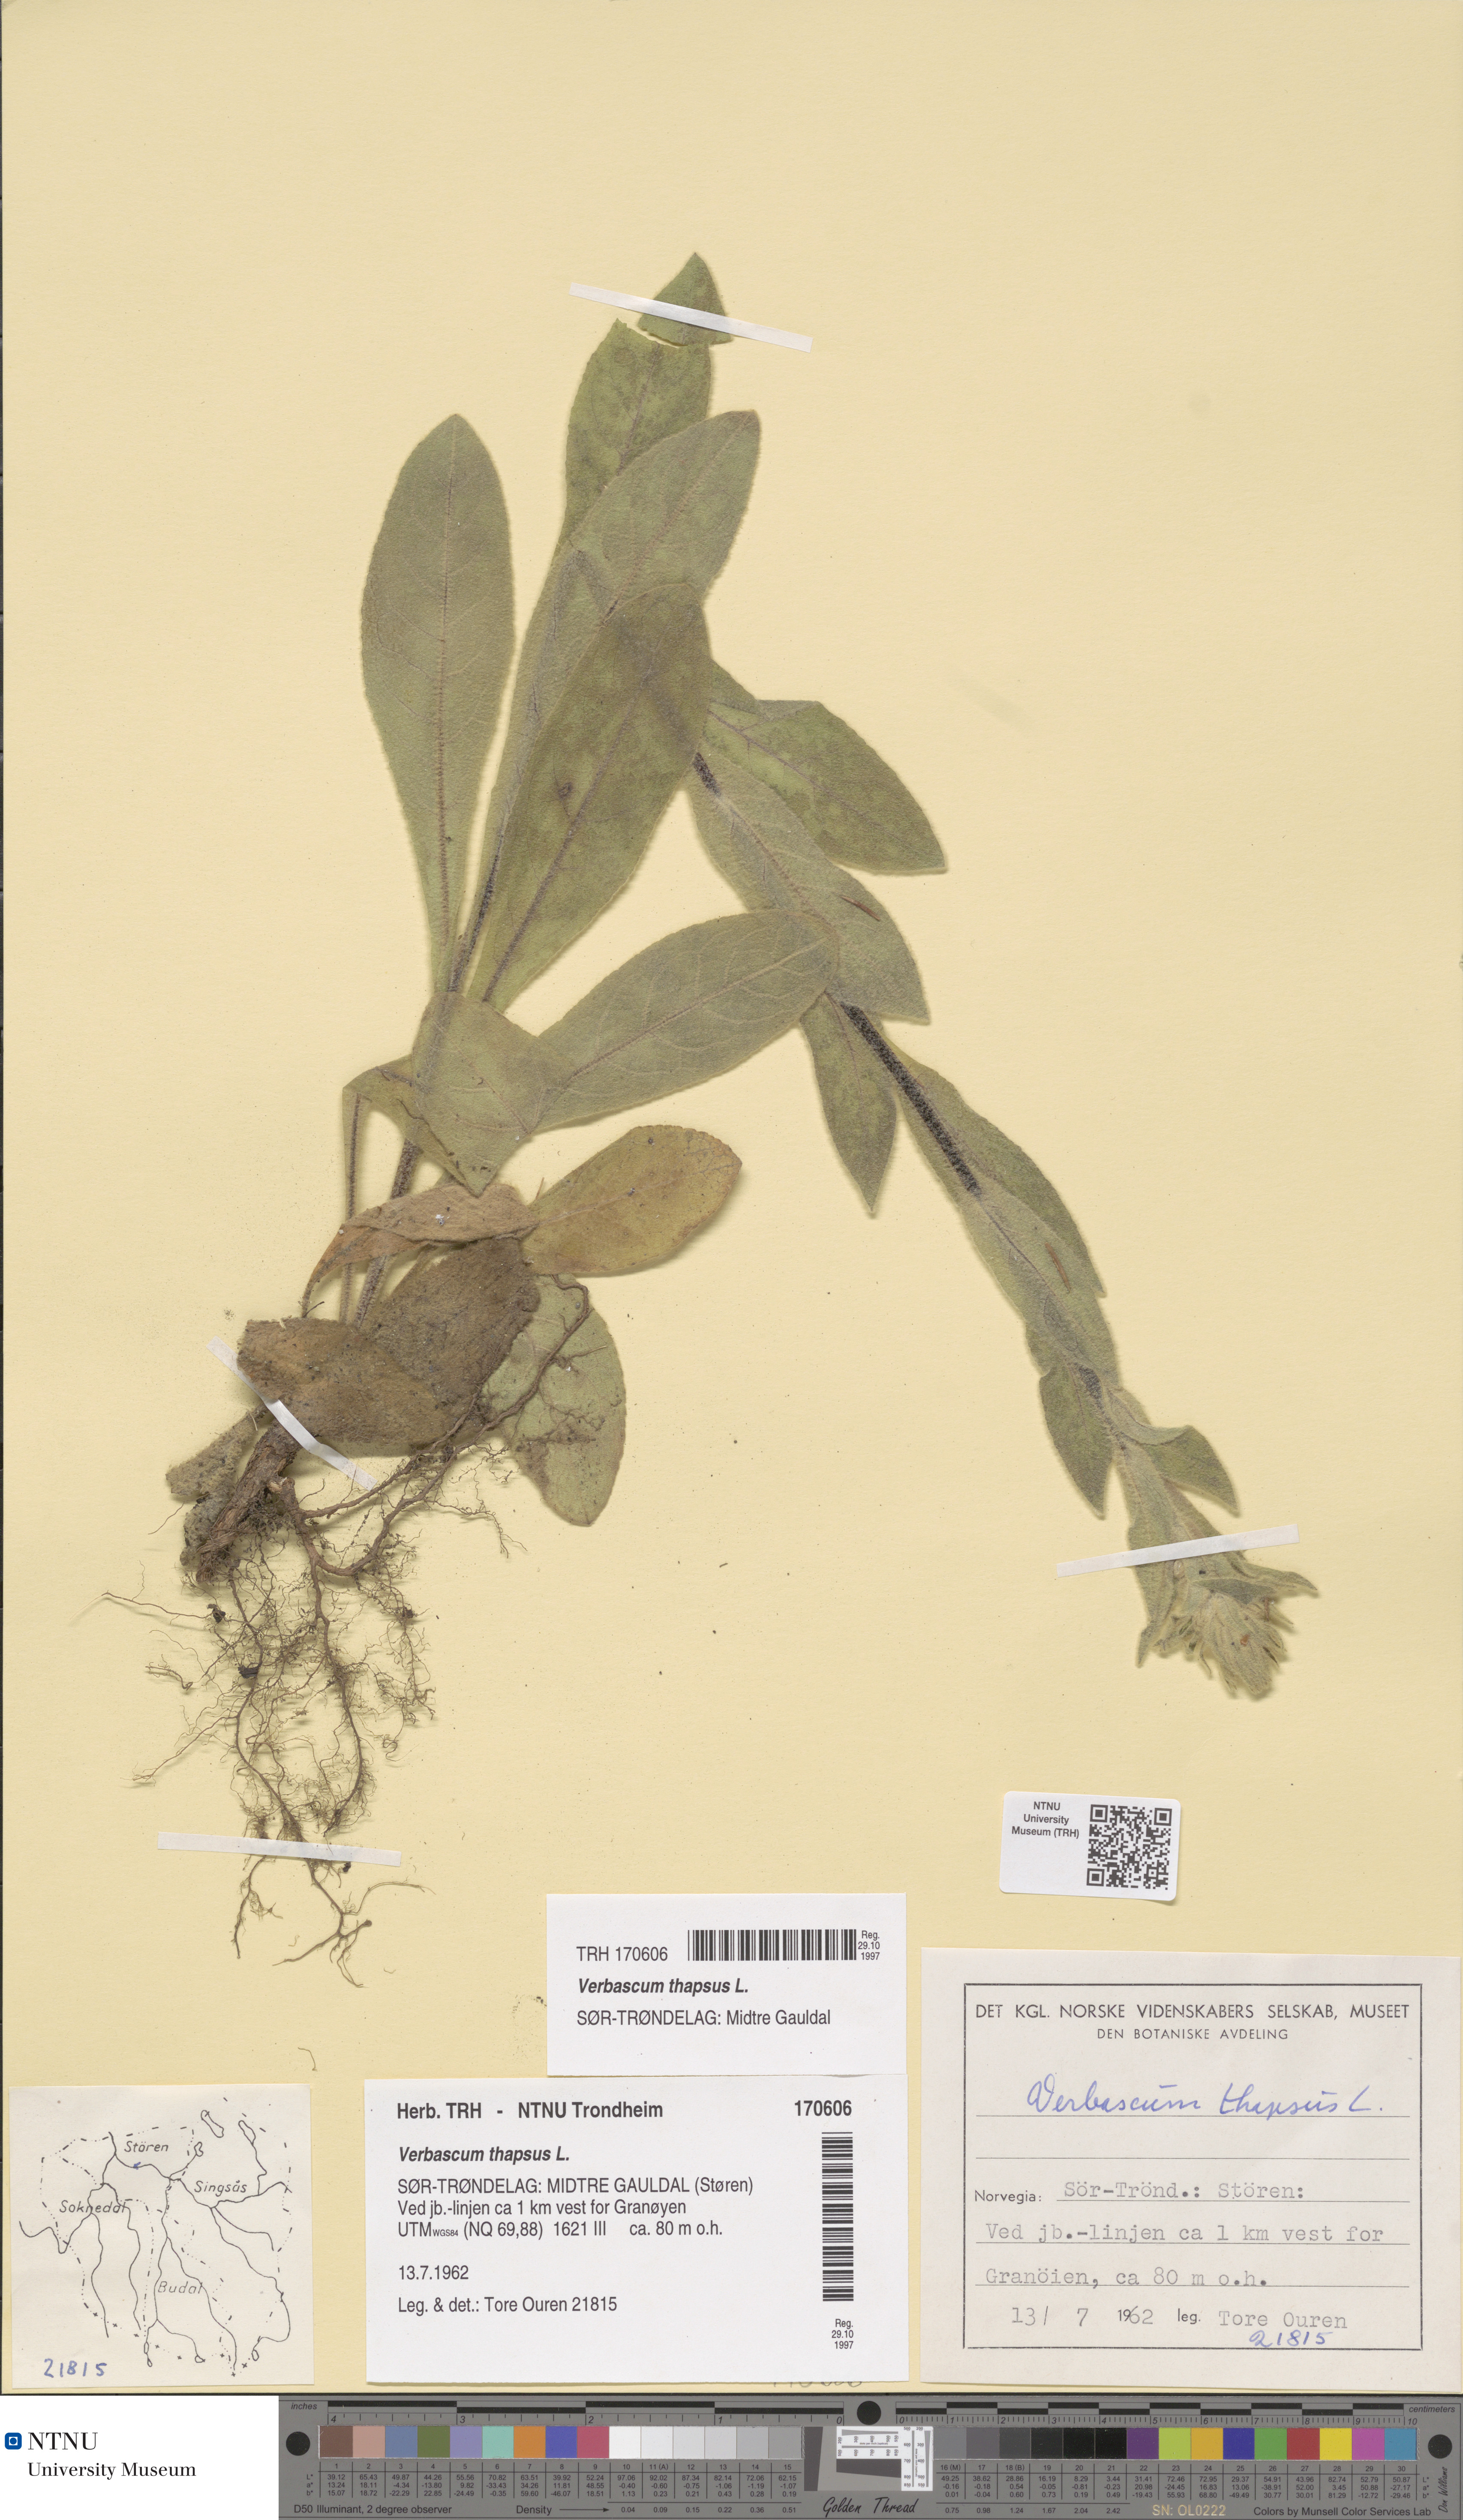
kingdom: Plantae
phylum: Tracheophyta
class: Magnoliopsida
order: Lamiales
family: Scrophulariaceae
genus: Verbascum
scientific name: Verbascum thapsus
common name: Common mullein
